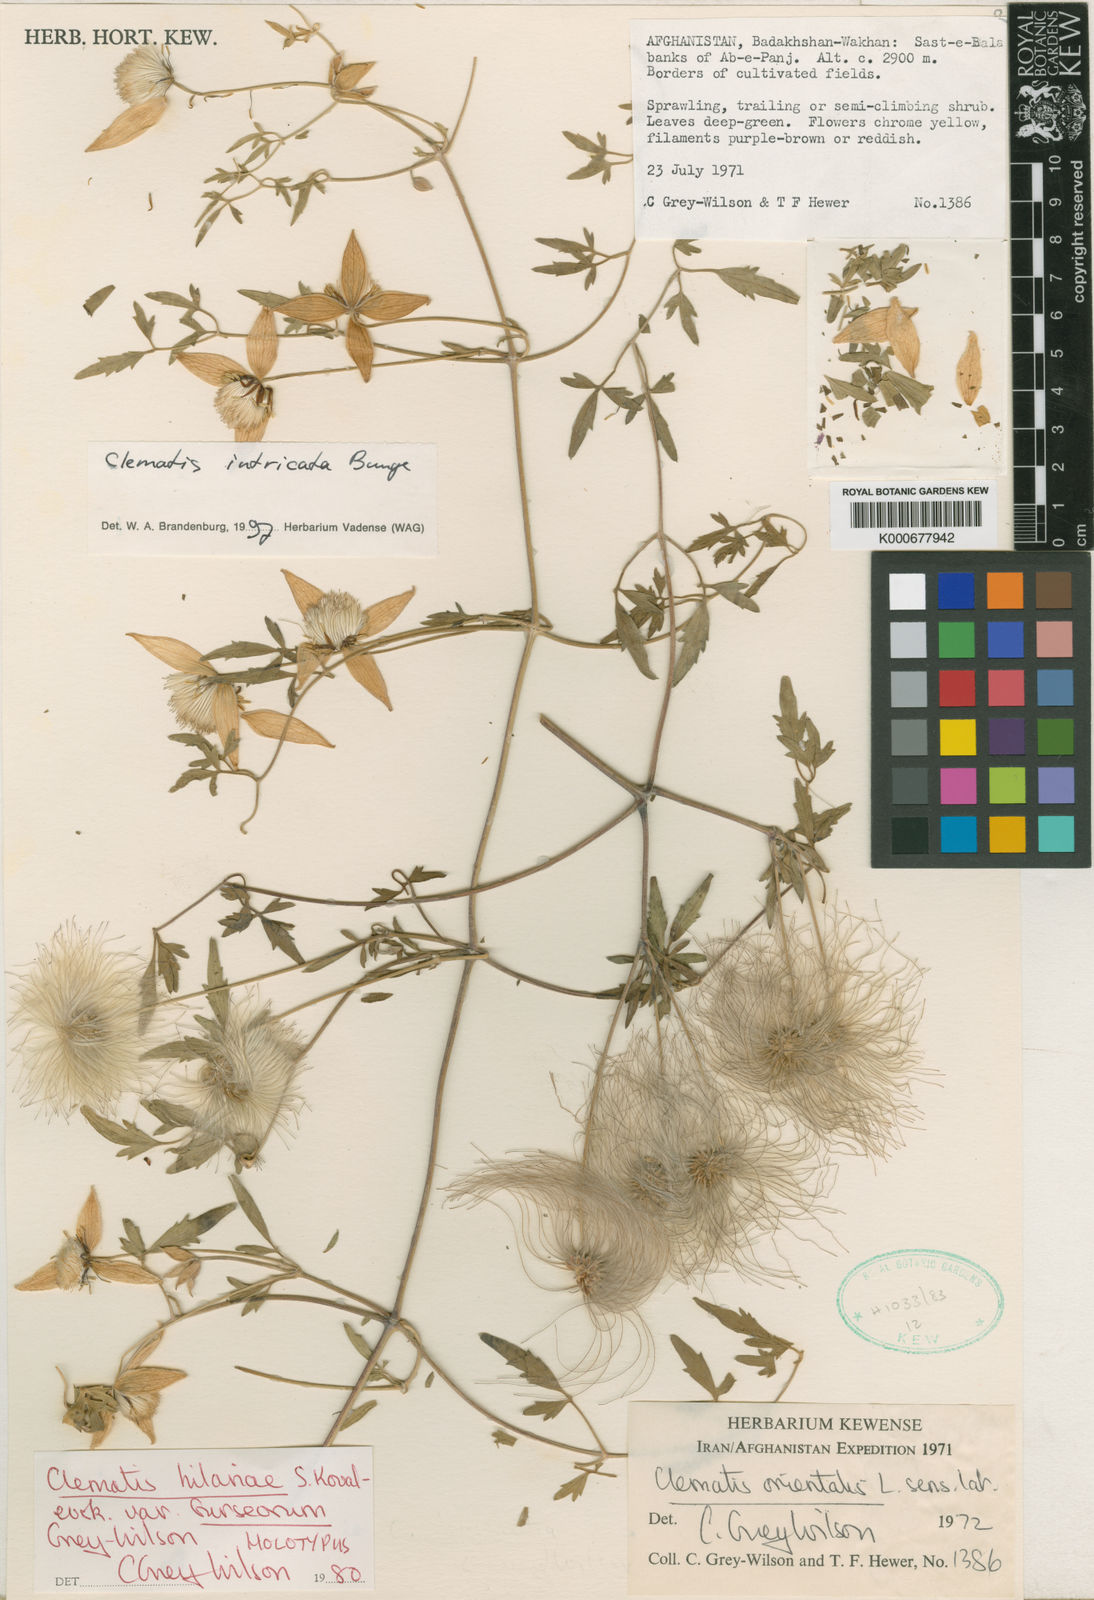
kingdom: Plantae
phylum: Tracheophyta
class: Magnoliopsida
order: Ranunculales
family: Ranunculaceae
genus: Clematis
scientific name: Clematis
